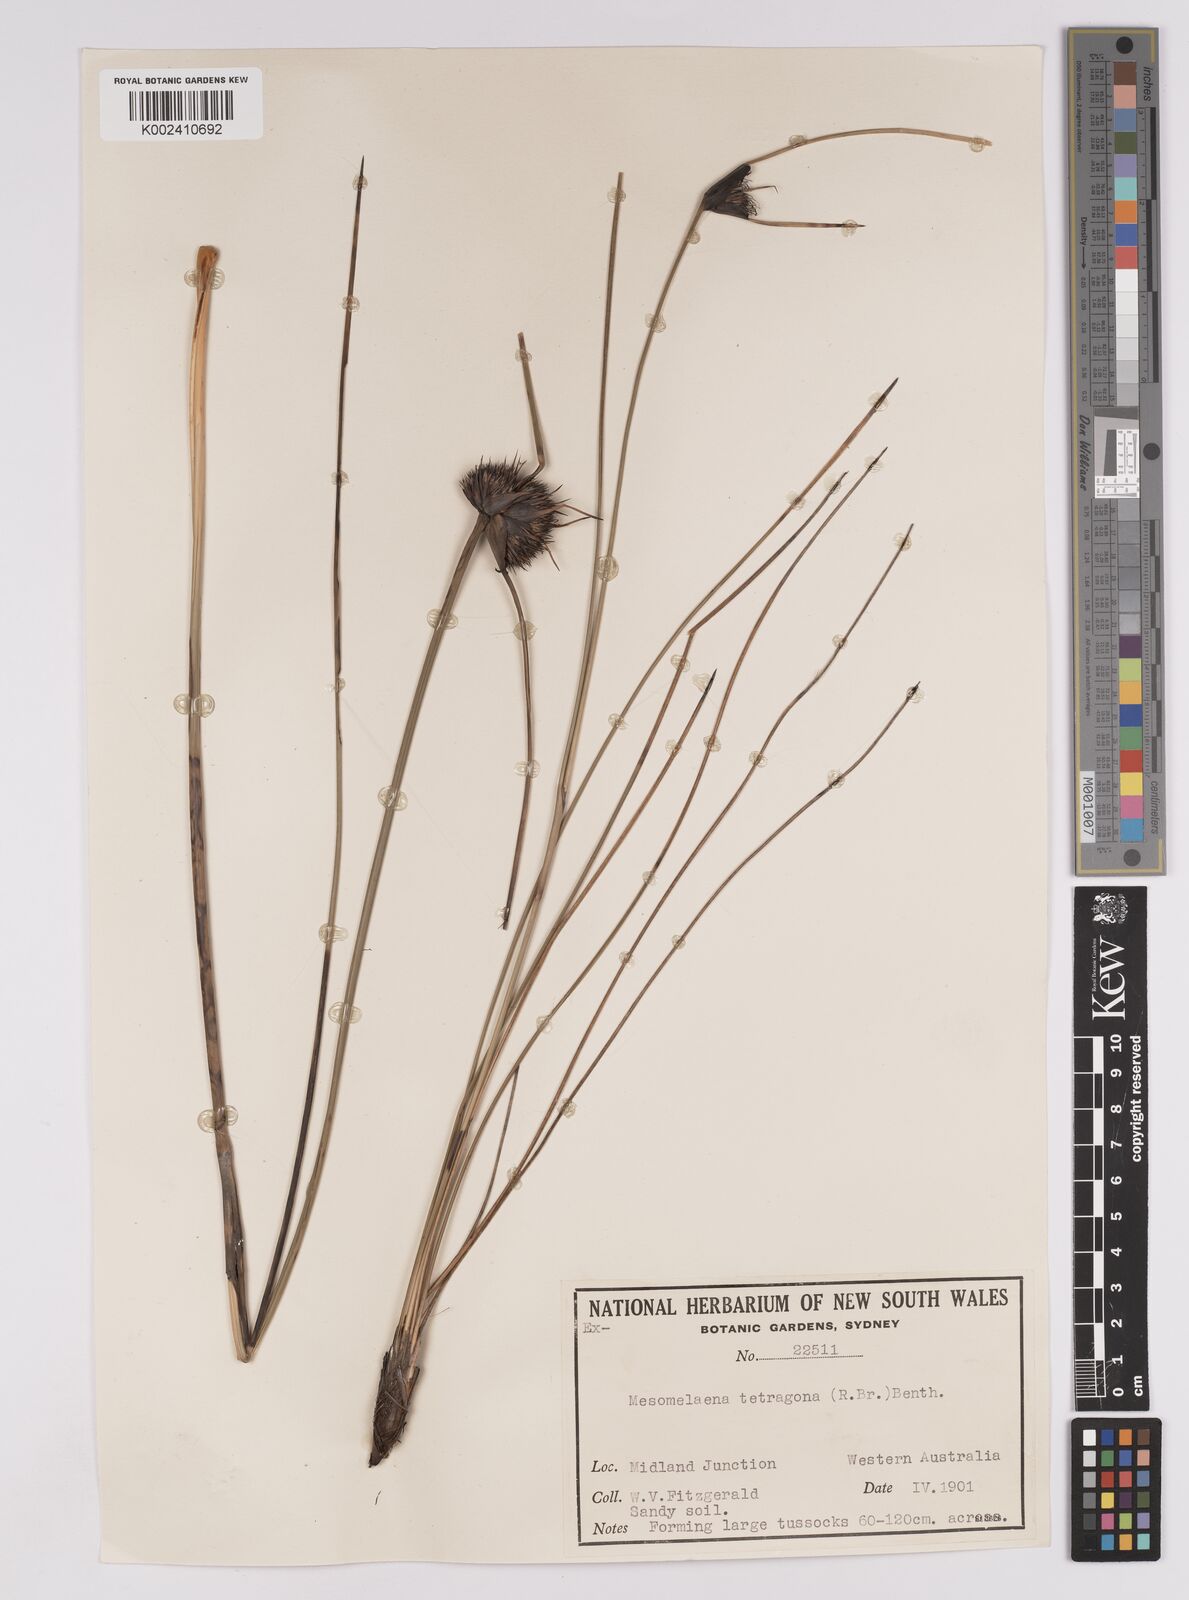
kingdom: Plantae
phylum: Tracheophyta
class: Liliopsida
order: Poales
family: Cyperaceae
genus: Mesomelaena
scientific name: Mesomelaena tetragona
